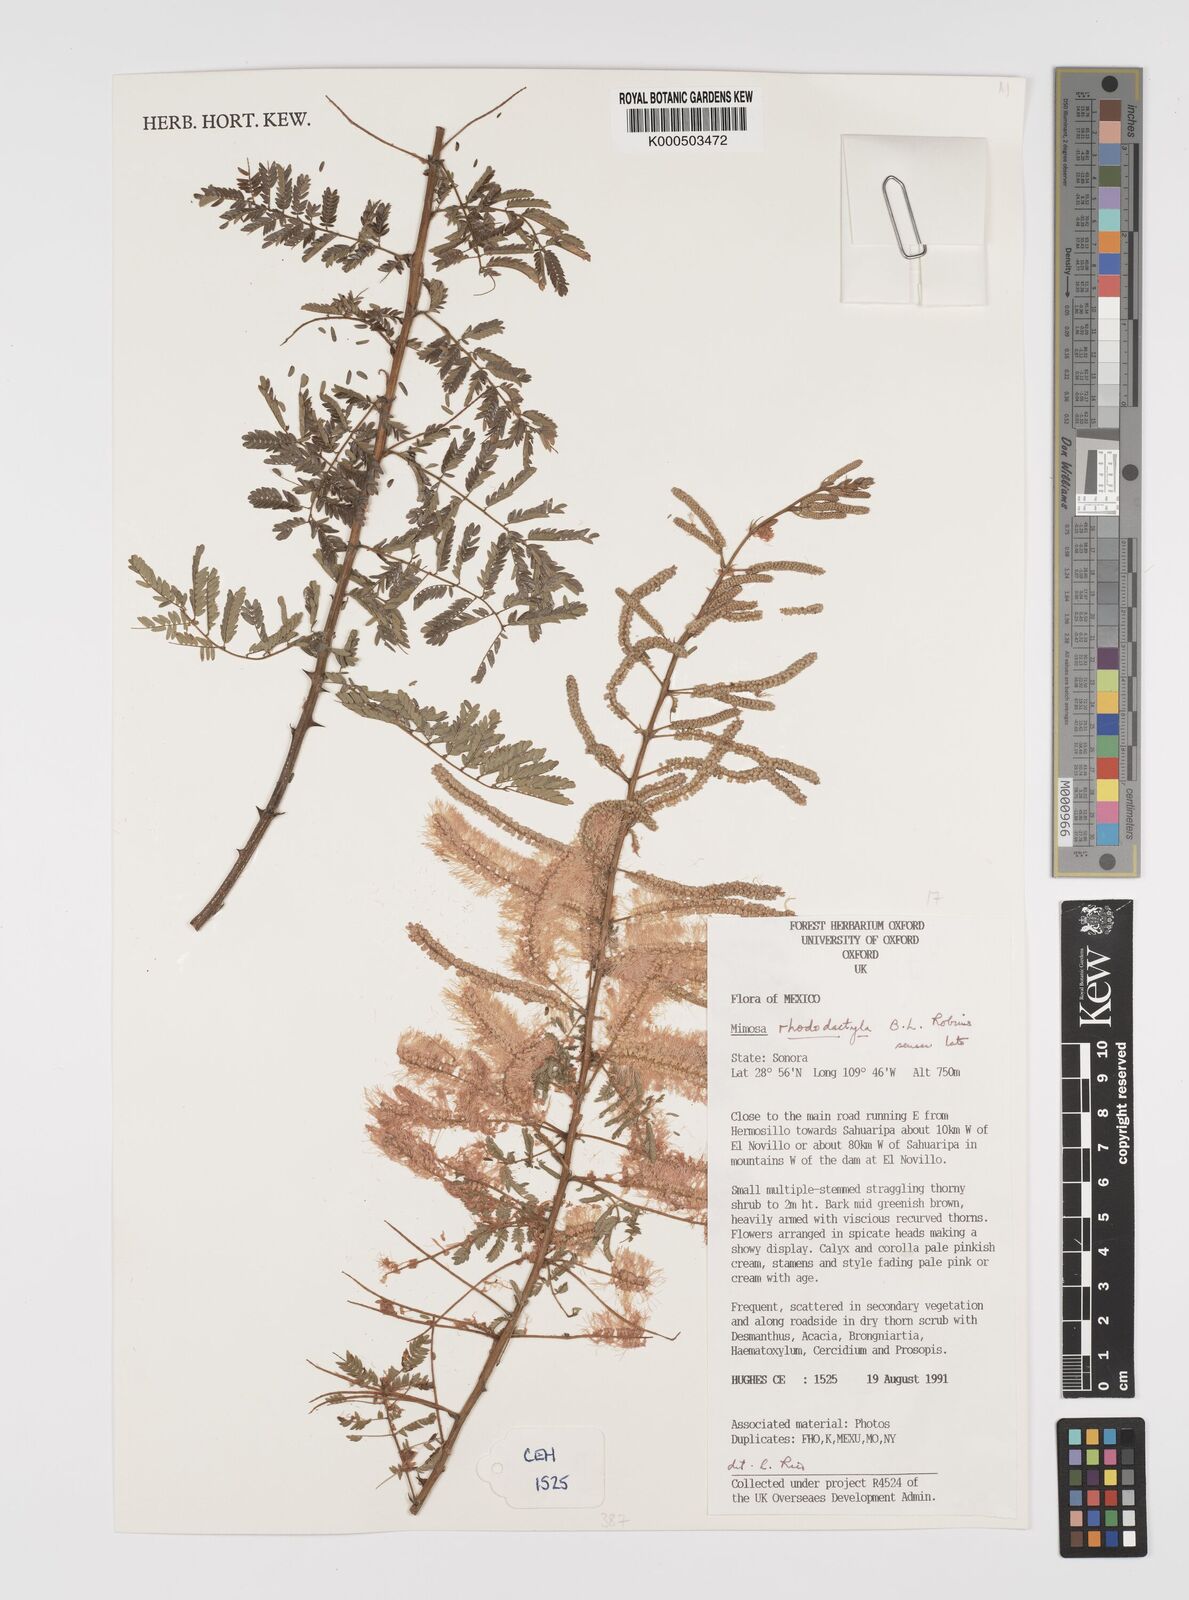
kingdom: Plantae
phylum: Tracheophyta
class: Magnoliopsida
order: Fabales
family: Fabaceae
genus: Mimosa
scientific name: Mimosa rhododactyla
